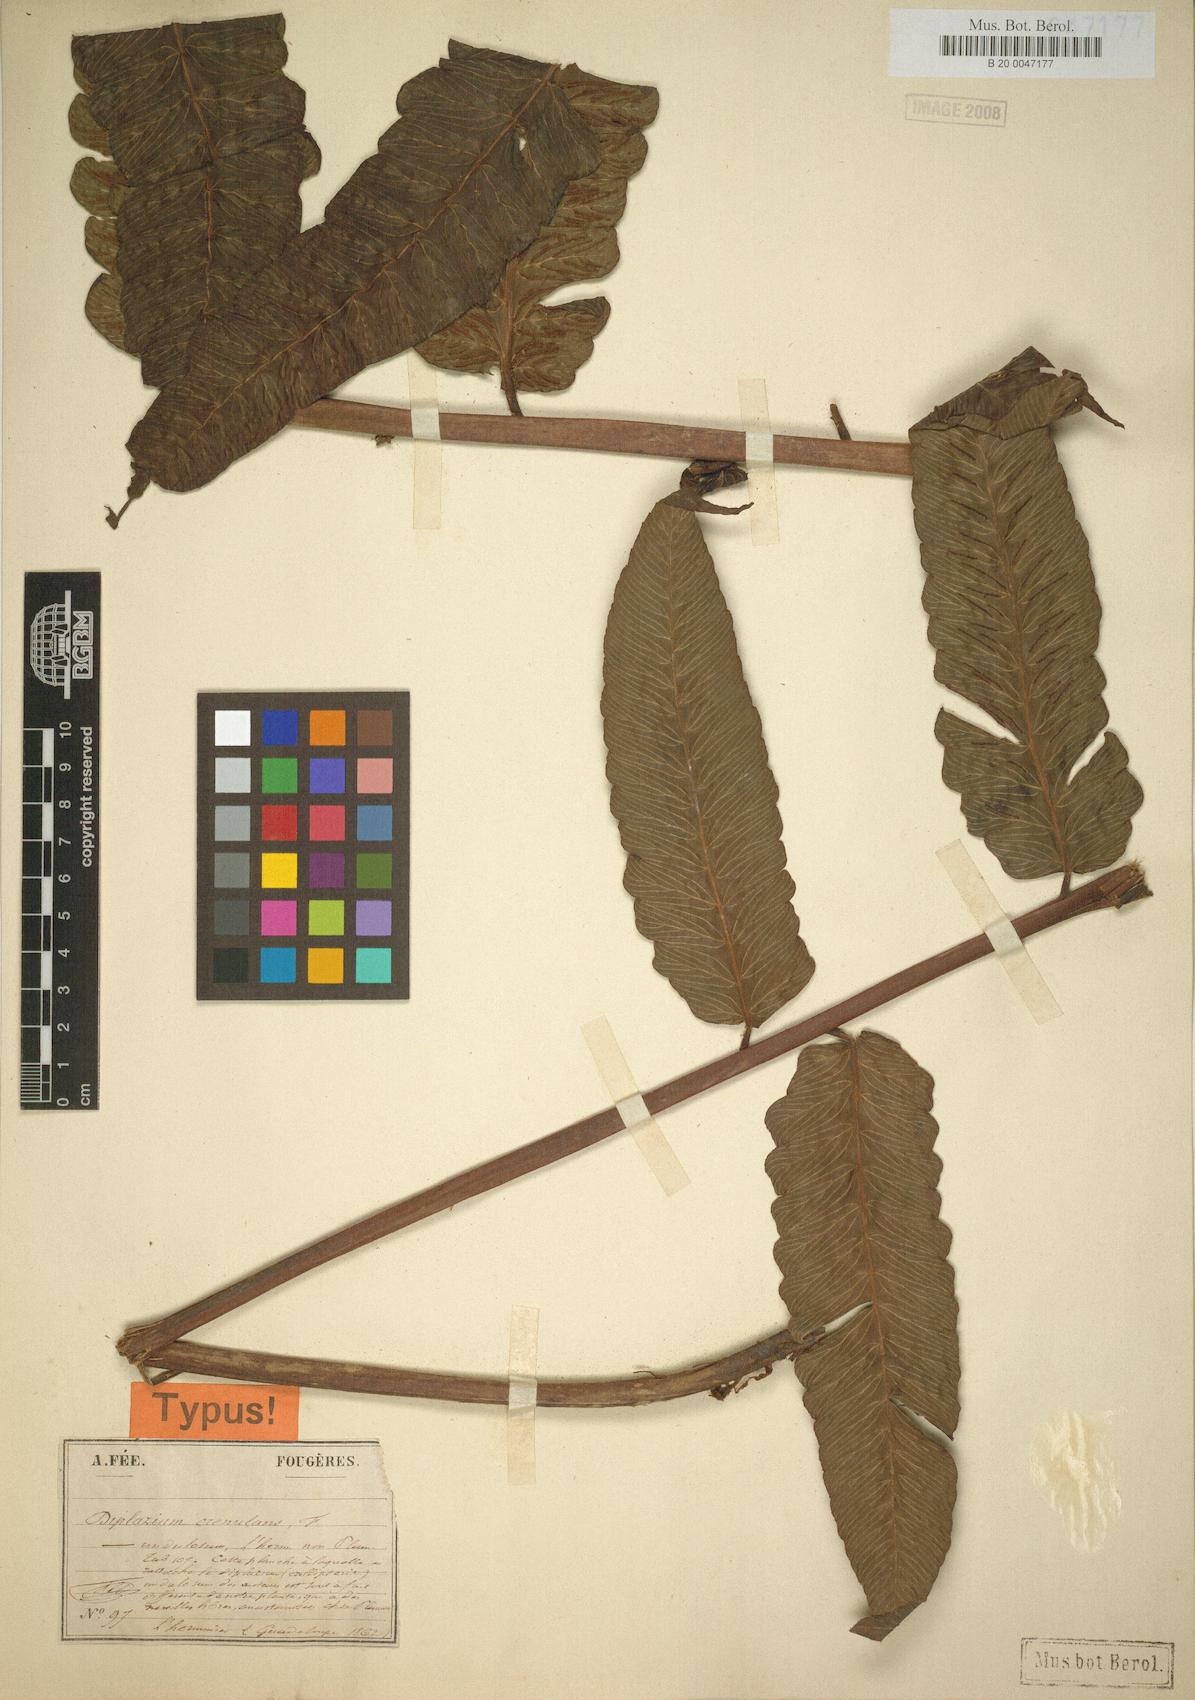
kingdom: Plantae
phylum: Tracheophyta
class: Polypodiopsida
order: Polypodiales
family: Athyriaceae
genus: Diplazium
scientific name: Diplazium celtidifolium
